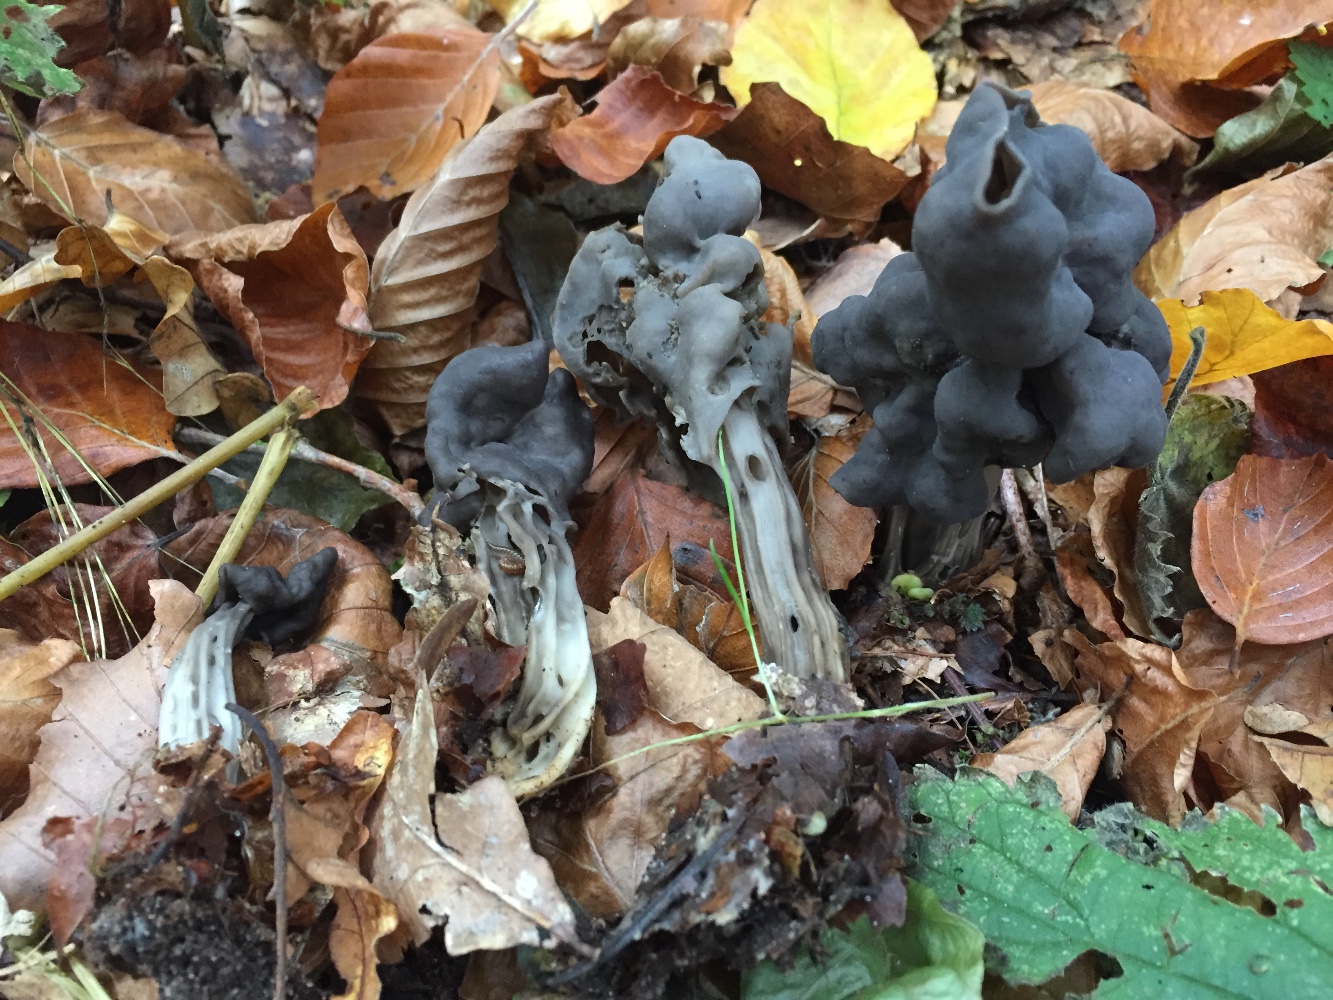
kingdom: Fungi
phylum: Ascomycota
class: Pezizomycetes
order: Pezizales
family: Helvellaceae
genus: Helvella
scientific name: Helvella lacunosa
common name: grubet foldhat
